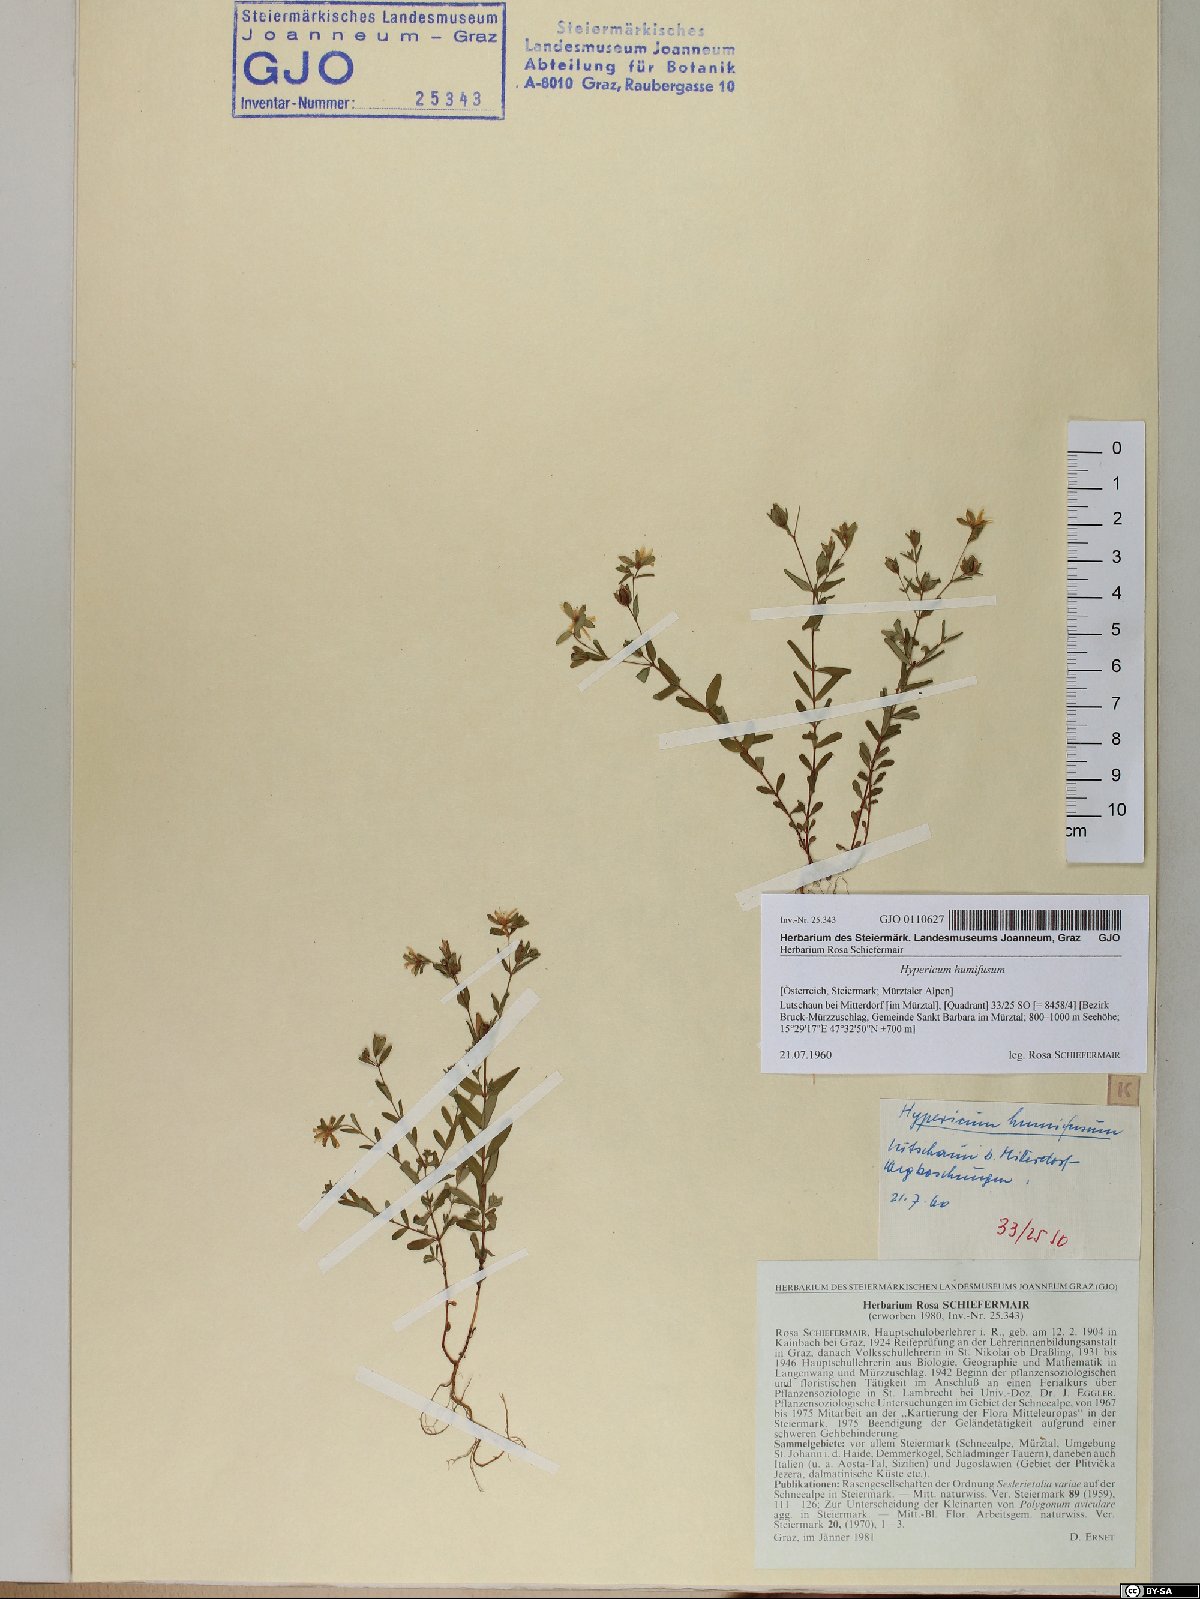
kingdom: Plantae
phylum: Tracheophyta
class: Magnoliopsida
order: Malpighiales
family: Hypericaceae
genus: Hypericum
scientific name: Hypericum humifusum
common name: Trailing st. john's-wort
